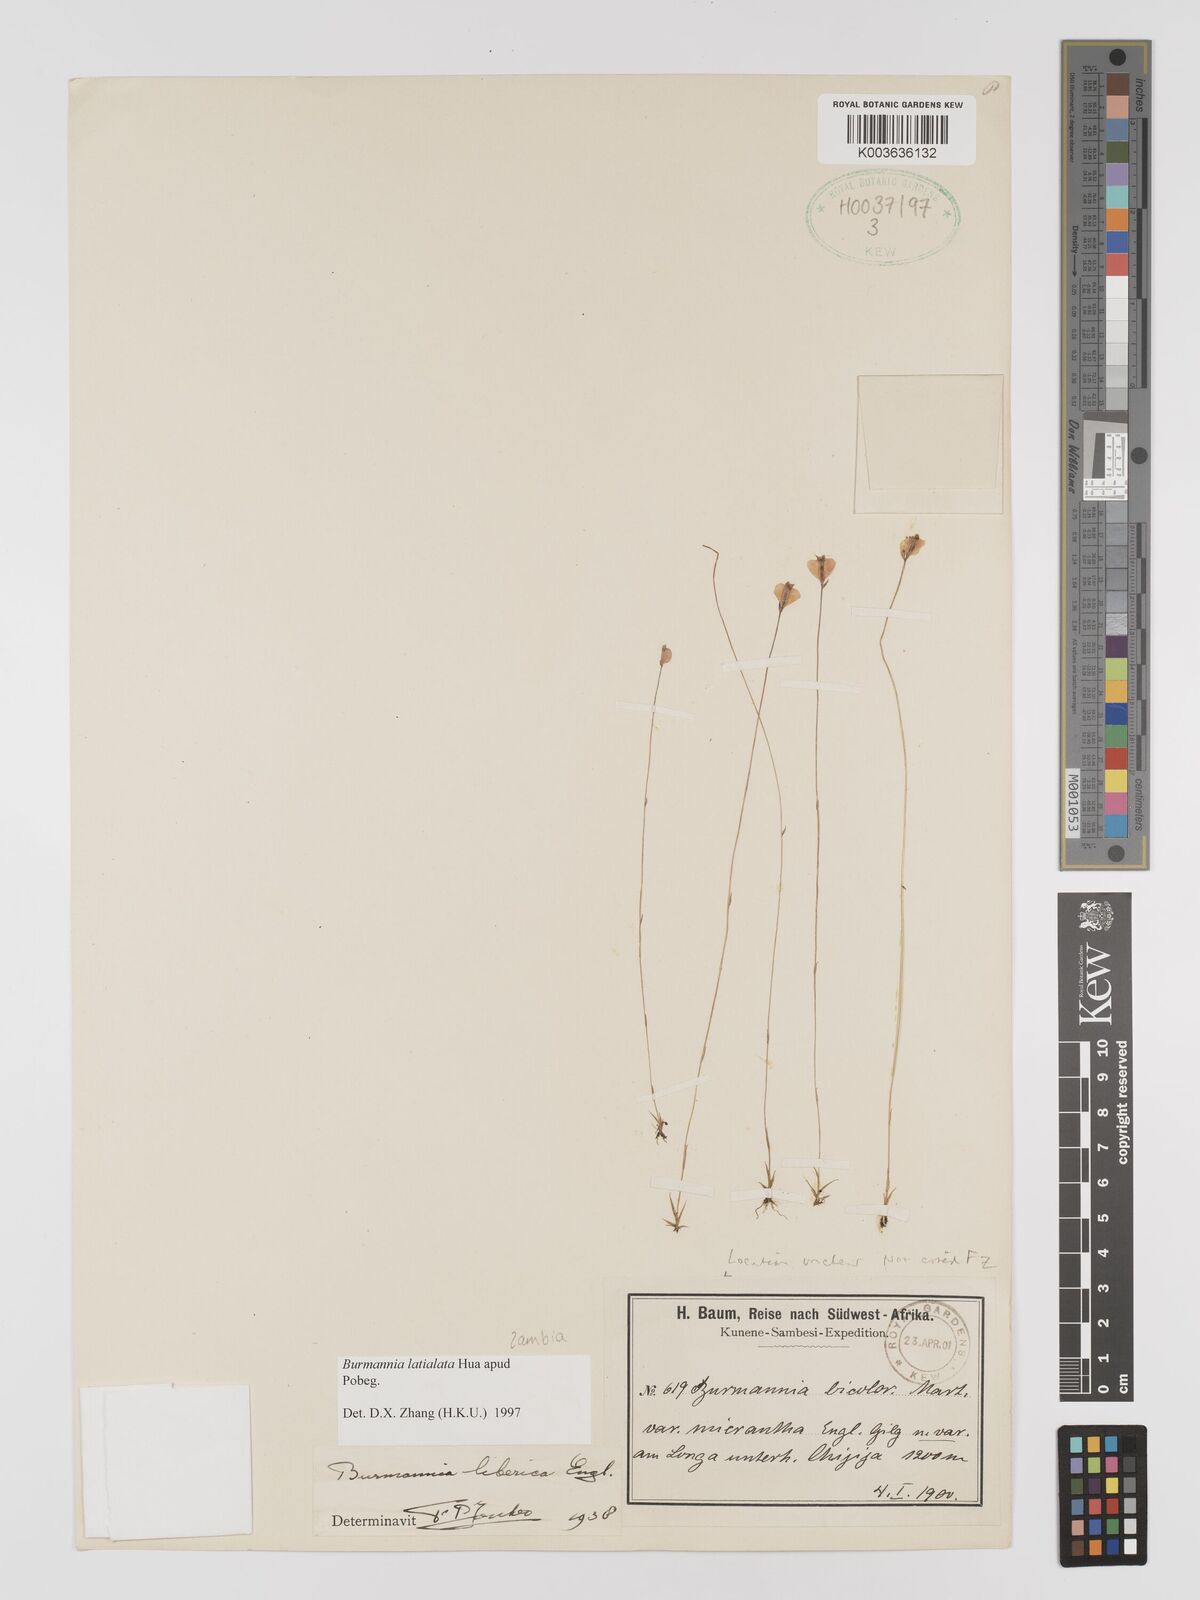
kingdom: Plantae
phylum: Tracheophyta
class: Liliopsida
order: Dioscoreales
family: Burmanniaceae
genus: Burmannia
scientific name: Burmannia madagascariensis
